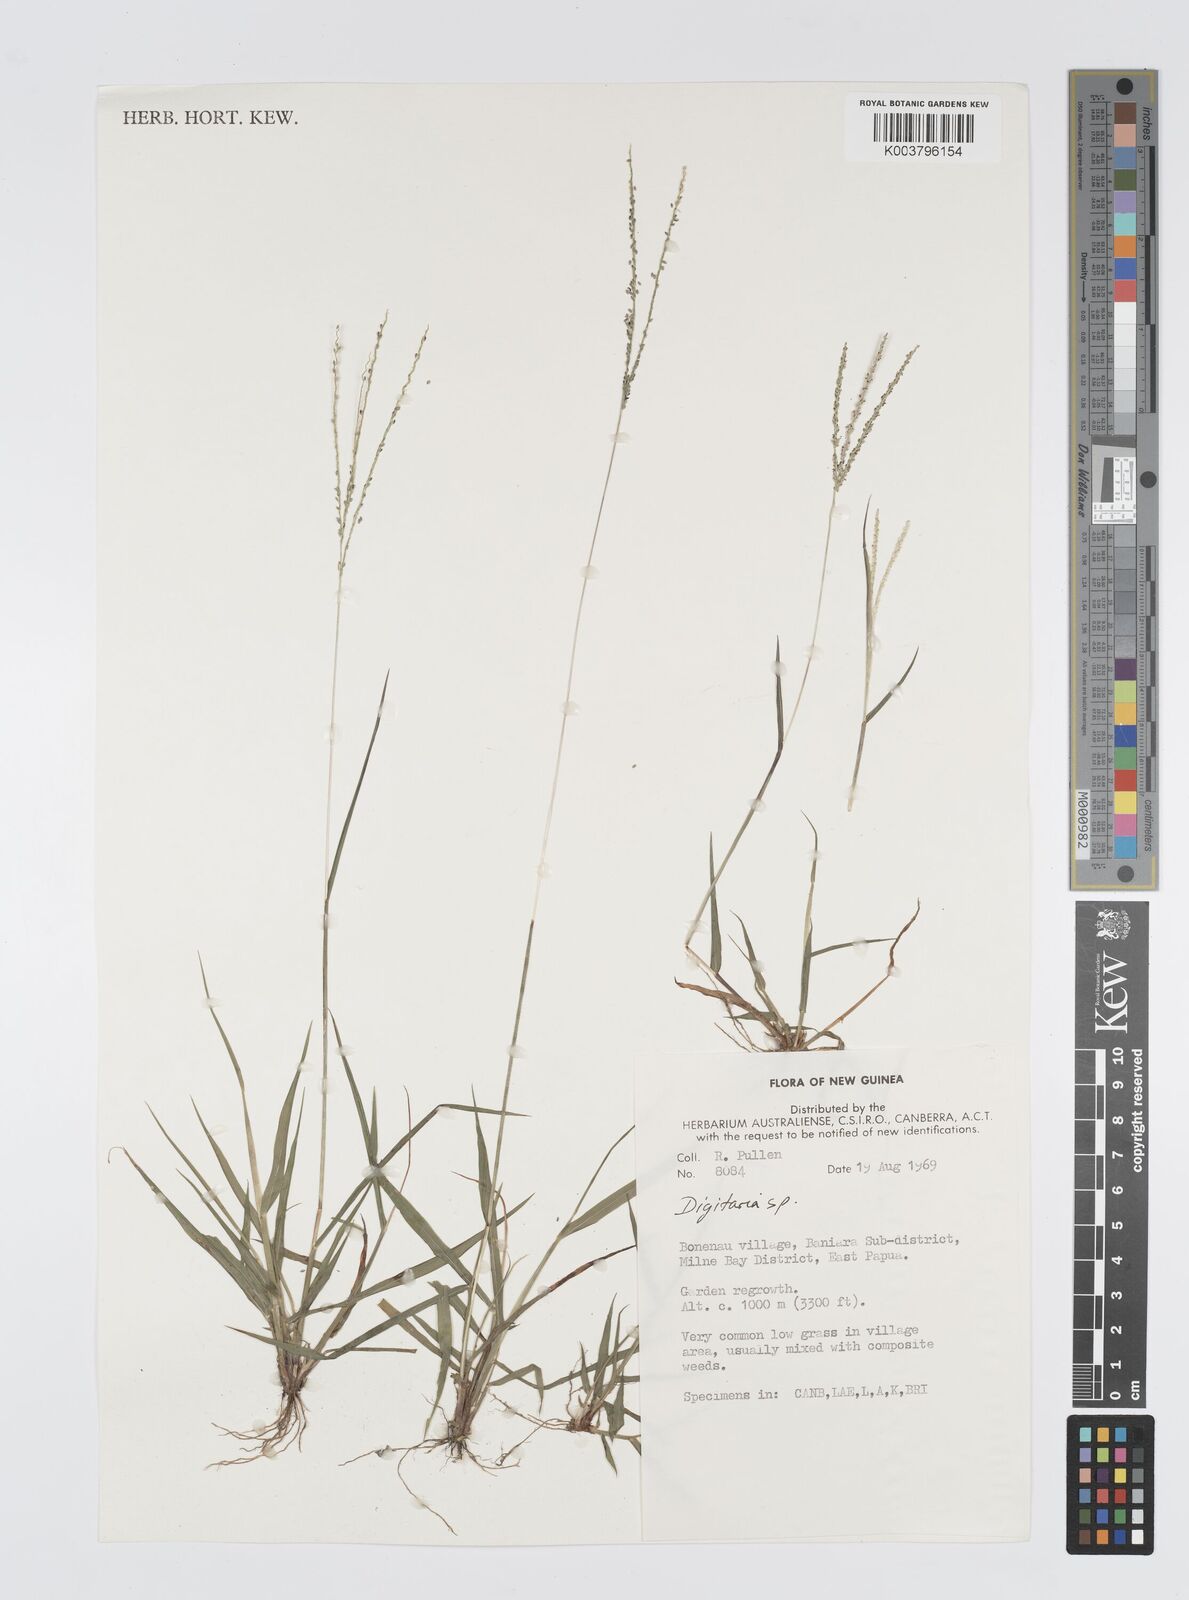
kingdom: Plantae
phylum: Tracheophyta
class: Liliopsida
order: Poales
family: Poaceae
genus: Digitaria
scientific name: Digitaria violascens
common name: Violet crabgrass
